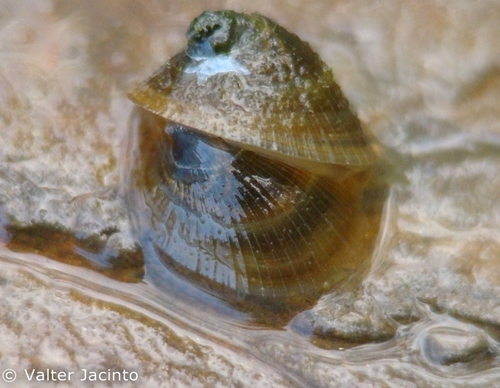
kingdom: Animalia
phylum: Mollusca
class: Gastropoda
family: Planorbidae
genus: Ancylus
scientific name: Ancylus fluviatilis
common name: River limpet
